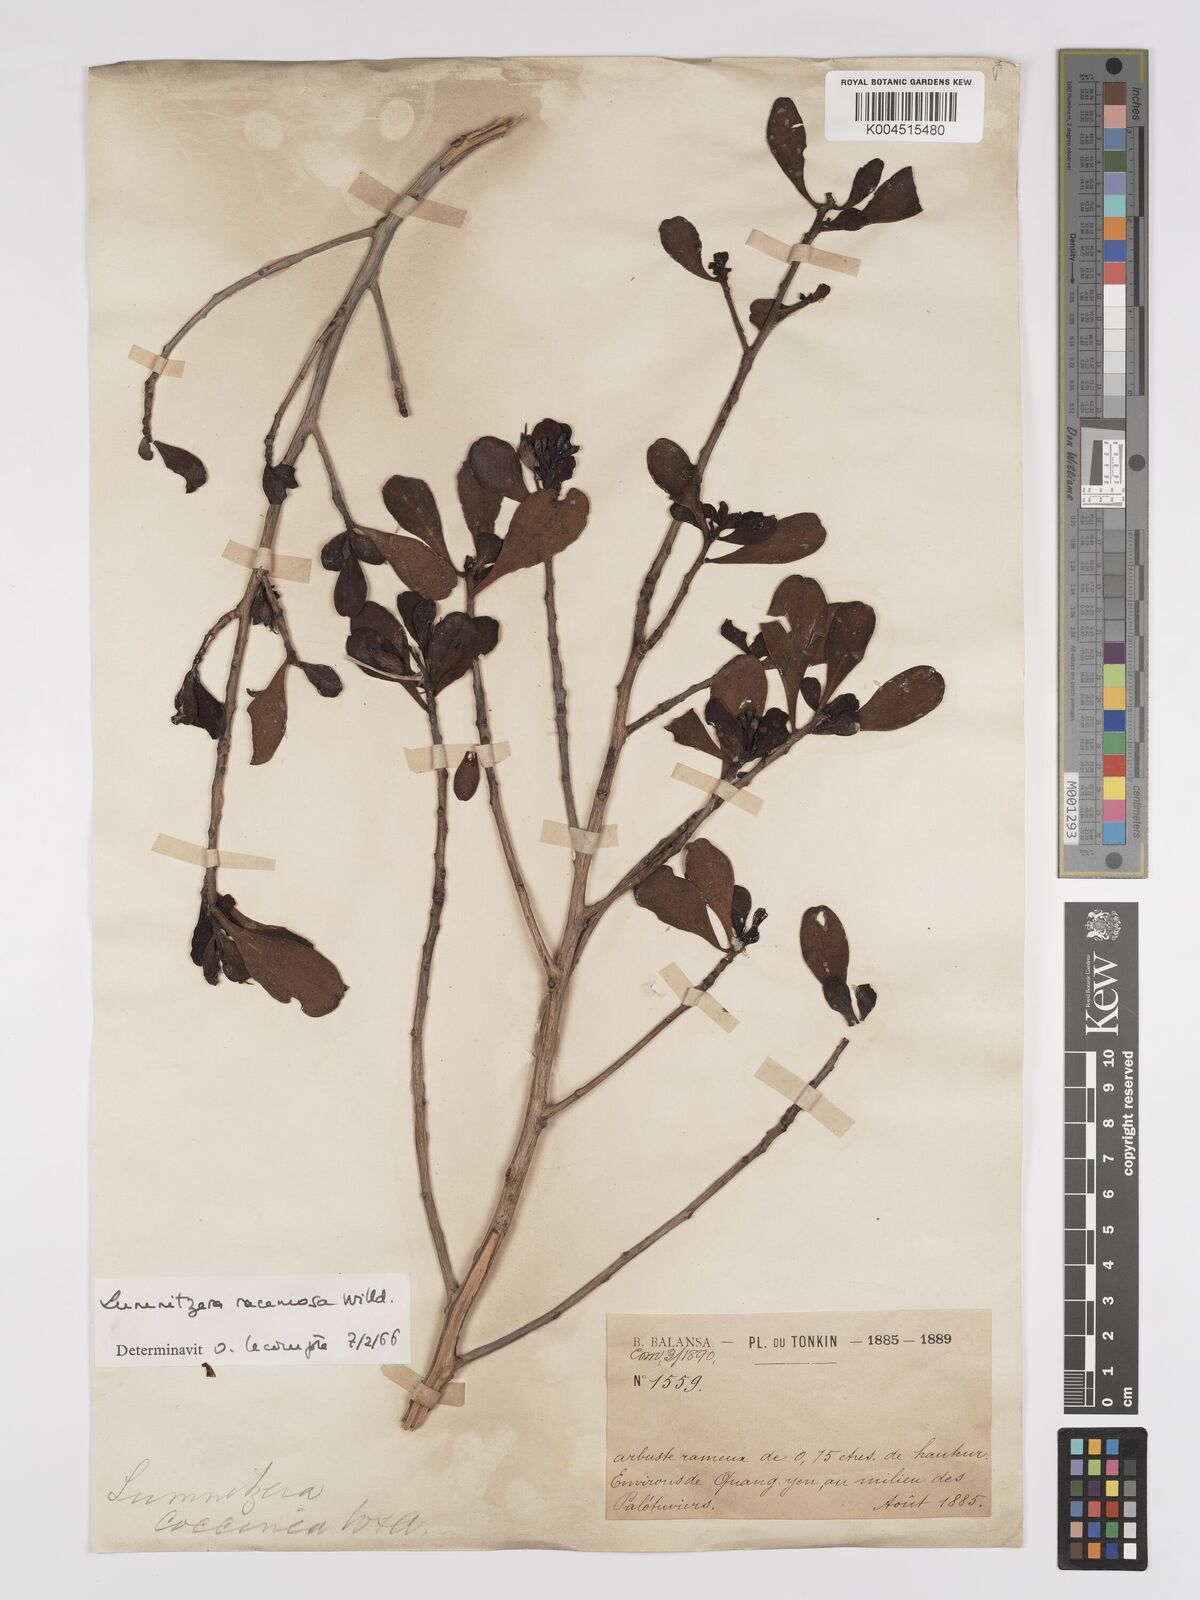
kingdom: Plantae
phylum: Tracheophyta
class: Magnoliopsida
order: Myrtales
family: Combretaceae
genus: Lumnitzera
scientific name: Lumnitzera racemosa
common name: White-flowered black mangrove
